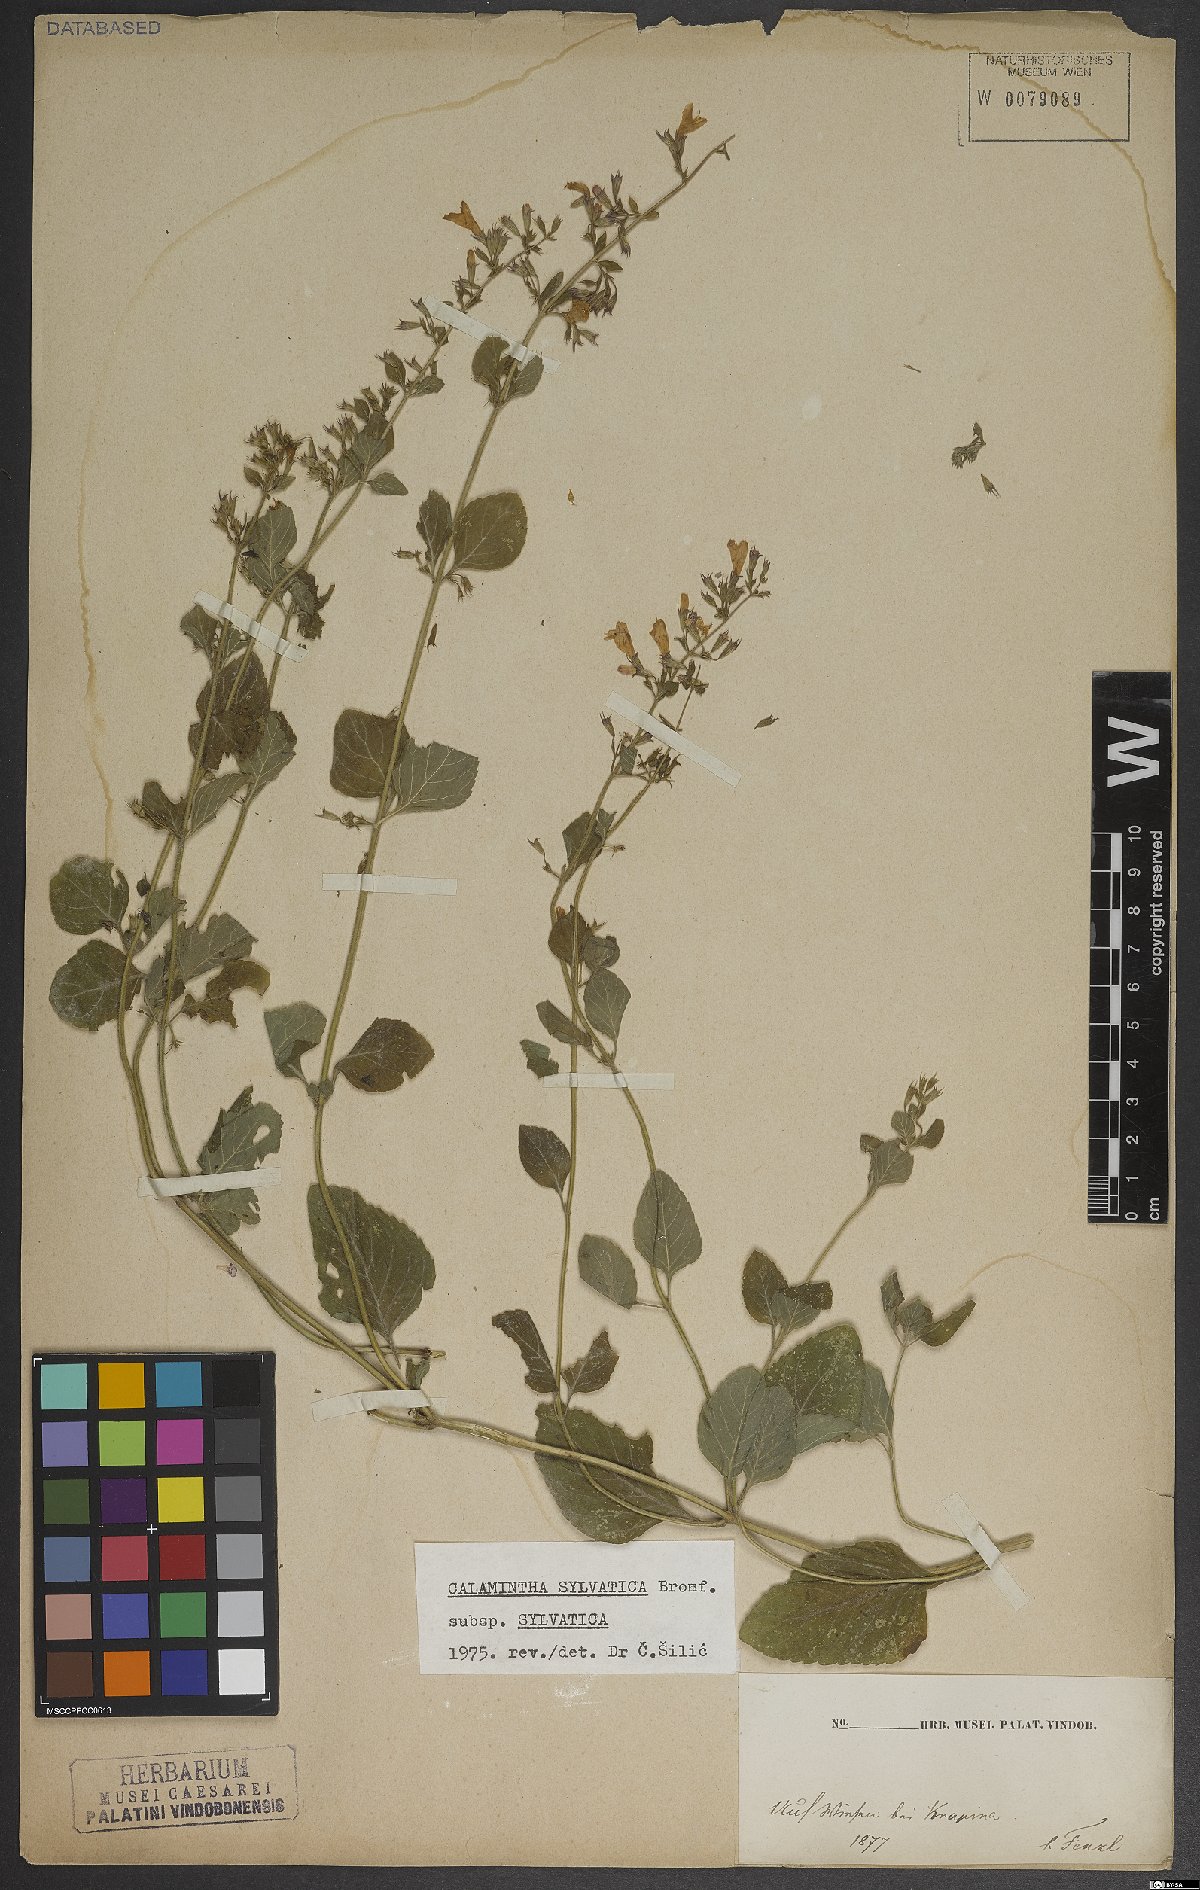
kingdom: Plantae
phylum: Tracheophyta
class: Magnoliopsida
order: Lamiales
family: Lamiaceae
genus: Clinopodium
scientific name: Clinopodium menthifolium
